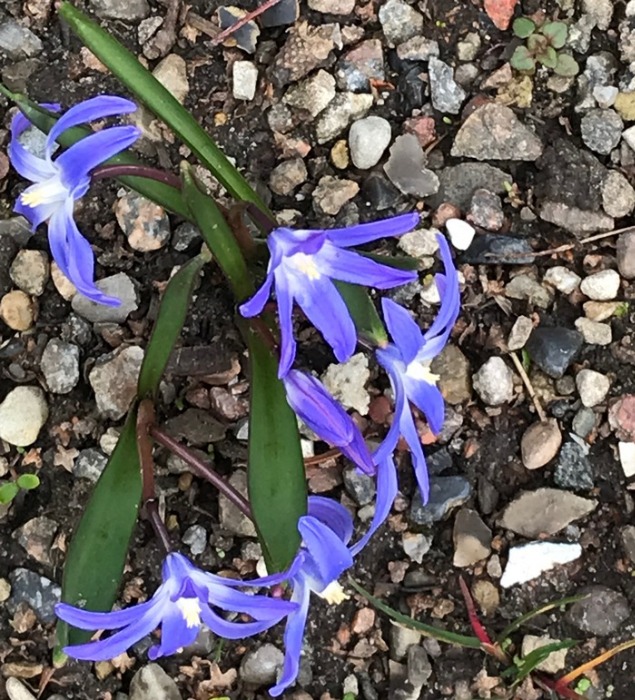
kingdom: Plantae
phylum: Tracheophyta
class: Liliopsida
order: Asparagales
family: Asparagaceae
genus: Scilla
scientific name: Scilla forbesii
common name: Almindelig snepryd
